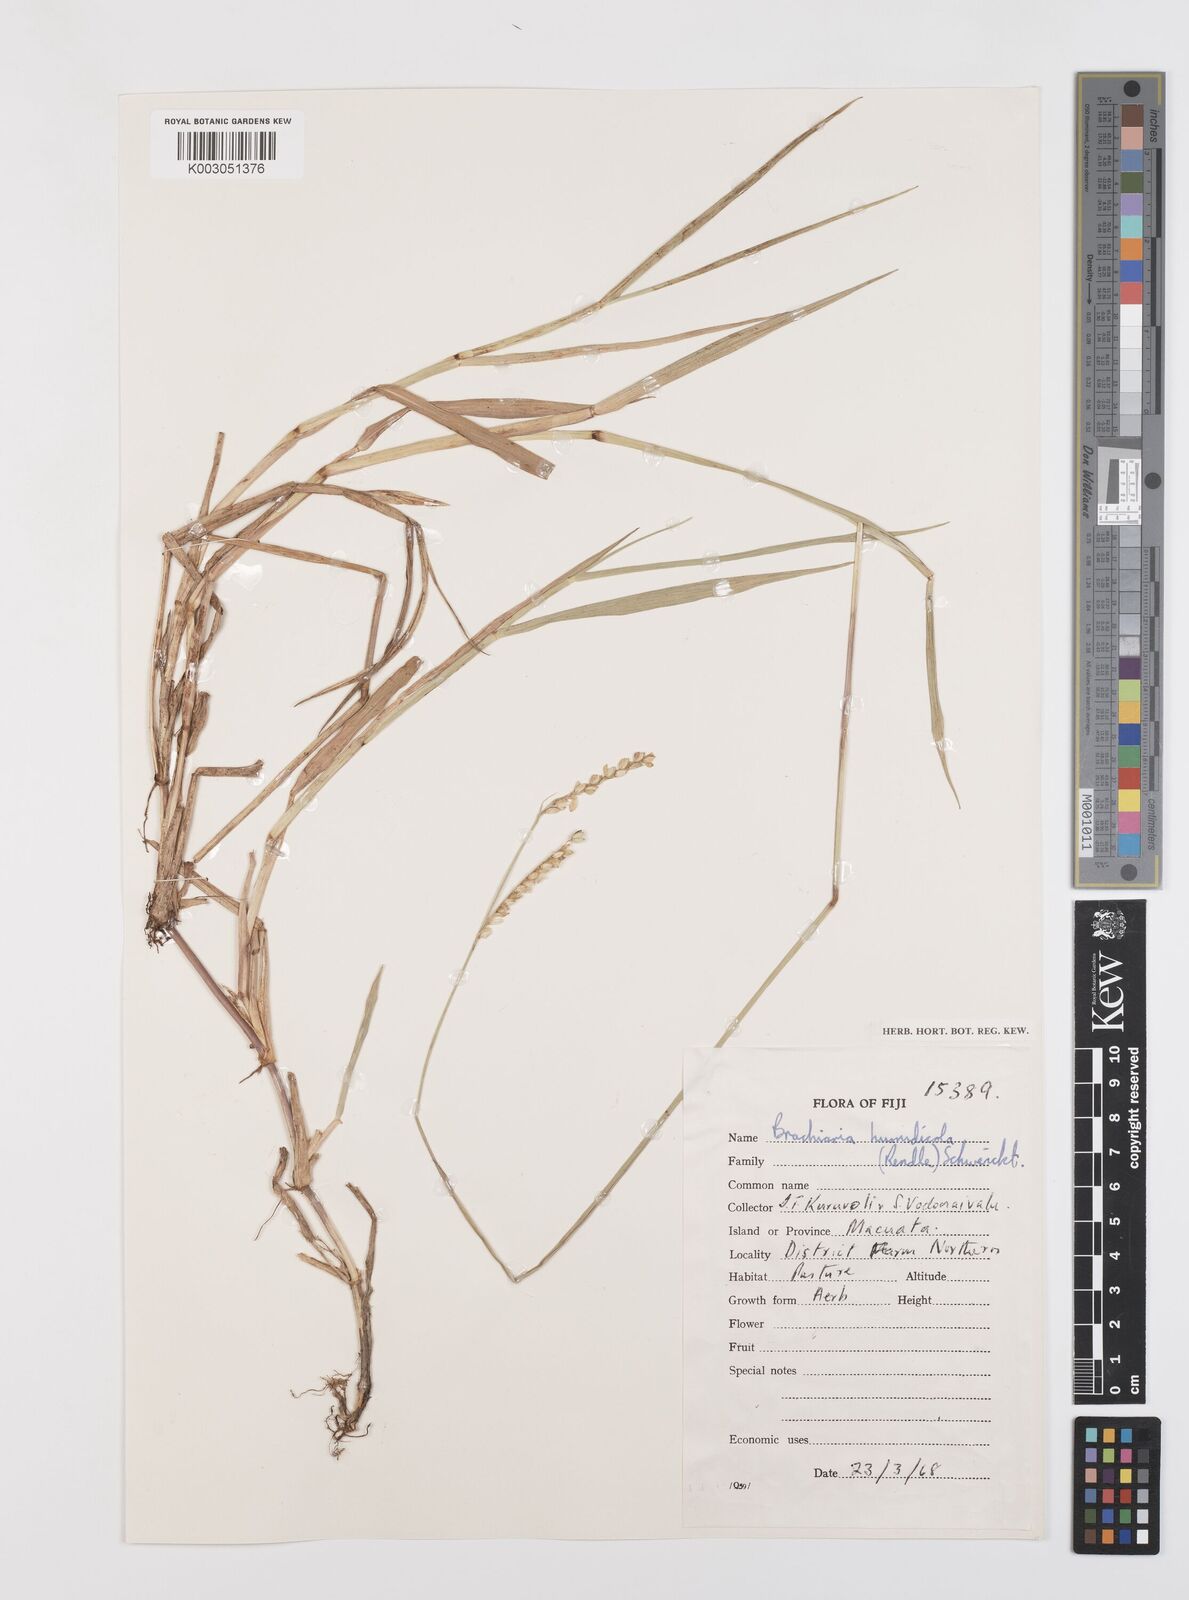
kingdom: Plantae
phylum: Tracheophyta
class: Liliopsida
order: Poales
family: Poaceae
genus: Urochloa
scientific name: Urochloa dictyoneura
